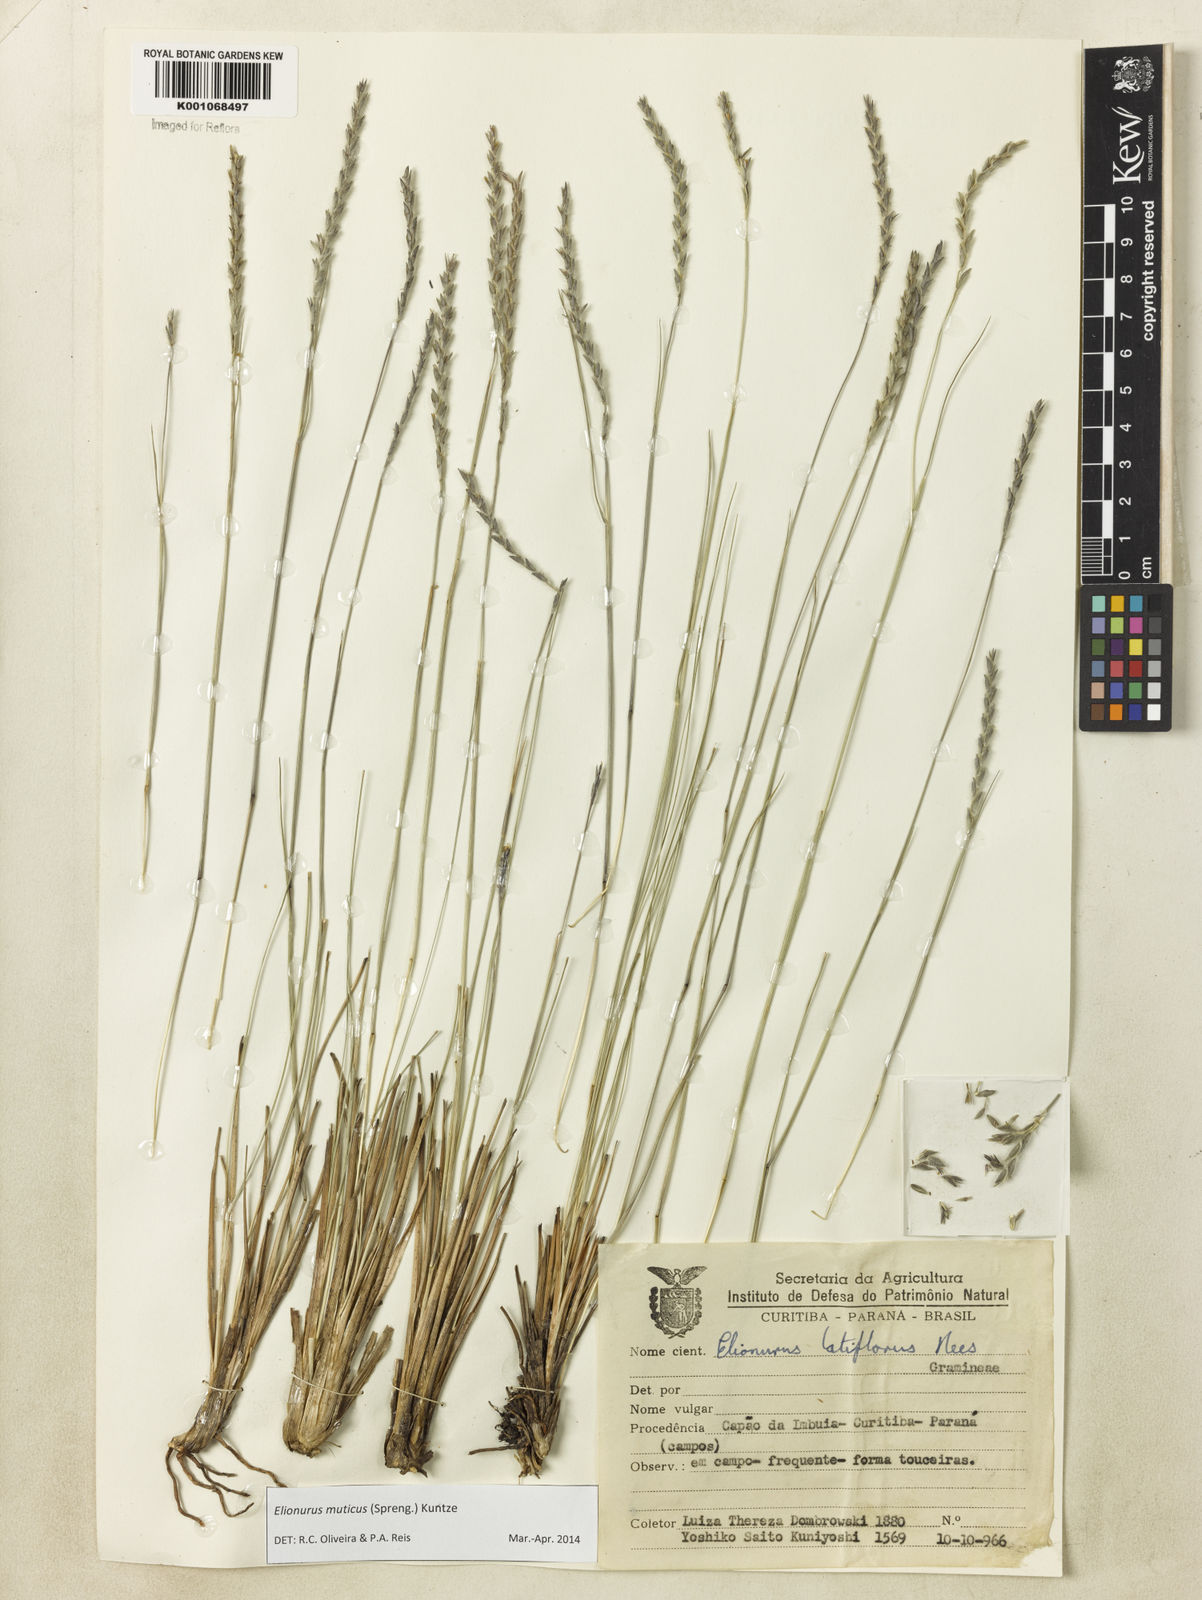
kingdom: Plantae
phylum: Tracheophyta
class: Liliopsida
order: Poales
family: Poaceae
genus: Elionurus
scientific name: Elionurus muticus
